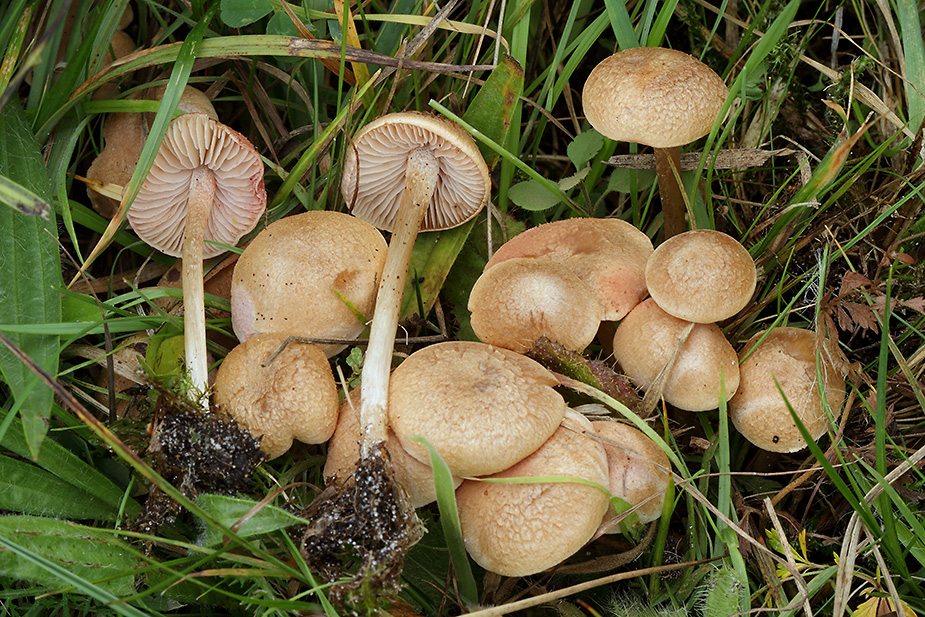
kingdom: Fungi
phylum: Basidiomycota
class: Agaricomycetes
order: Agaricales
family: Entolomataceae
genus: Entoloma
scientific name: Entoloma queletii
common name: rosalilla rødblad
